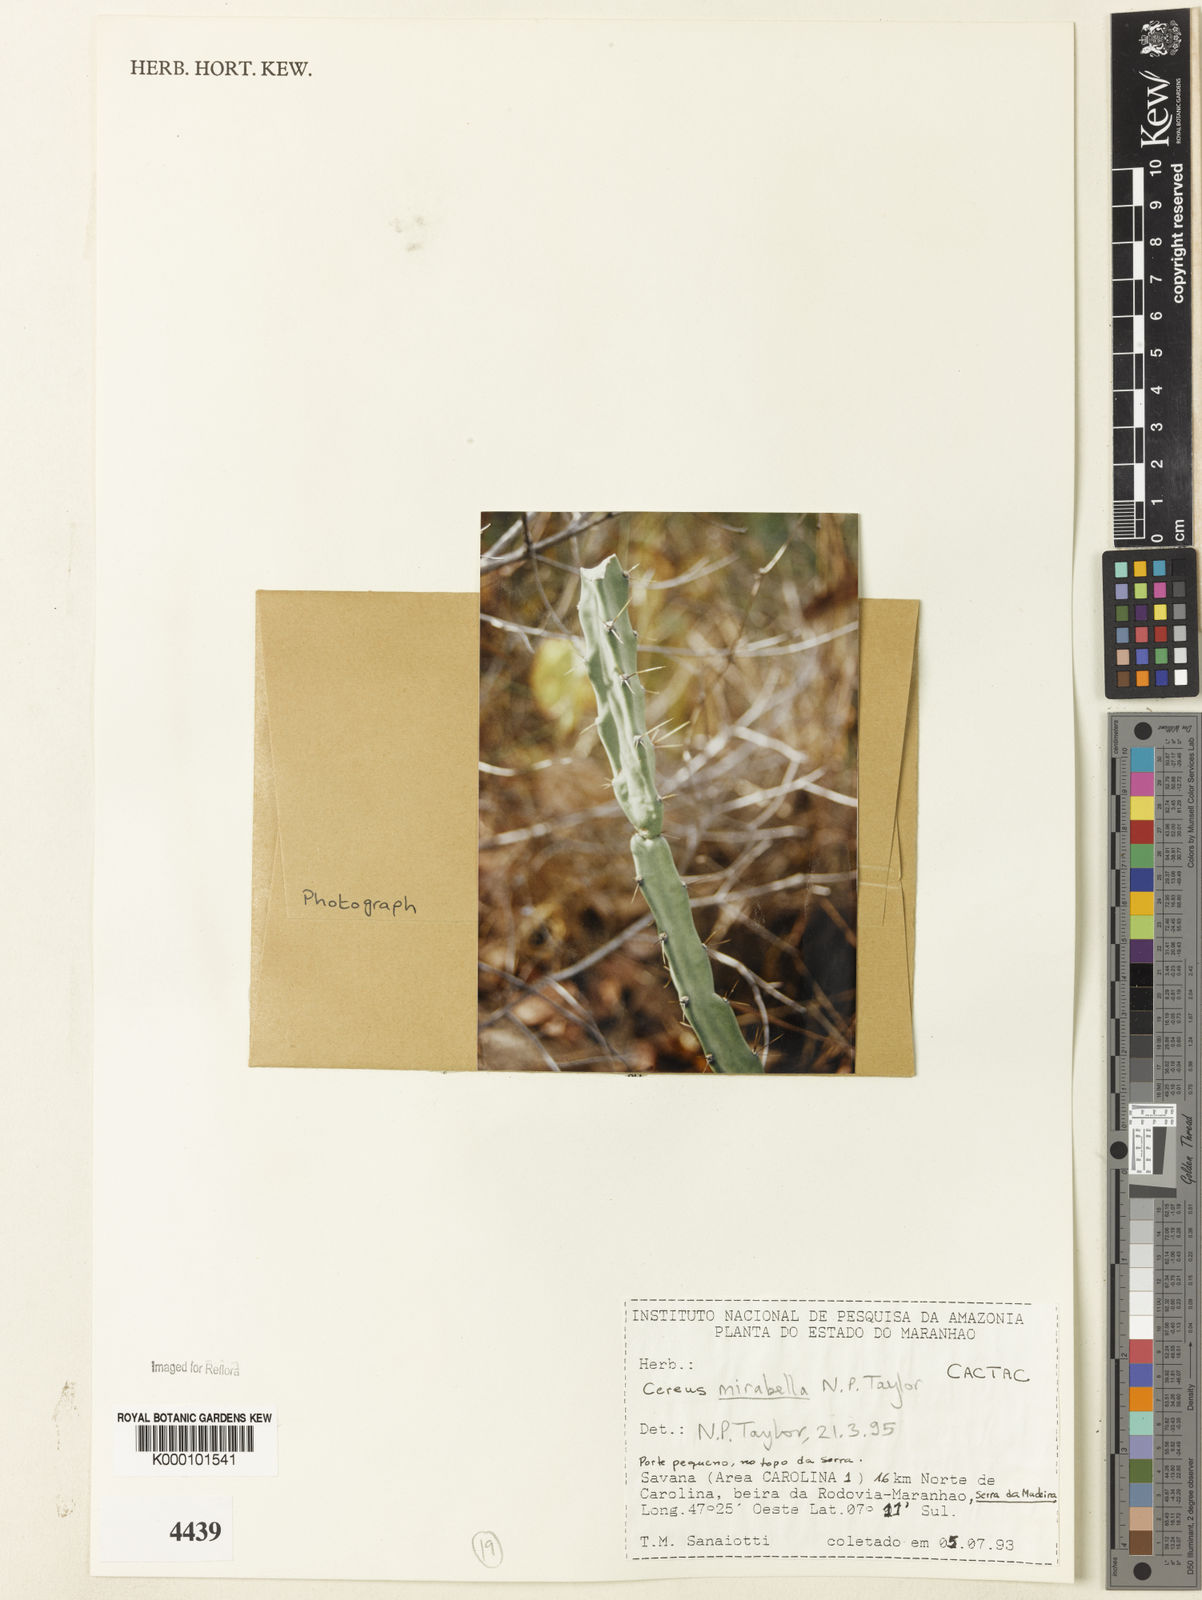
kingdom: Plantae
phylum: Tracheophyta
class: Magnoliopsida
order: Caryophyllales
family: Cactaceae
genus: Cereus
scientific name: Cereus mirabella
